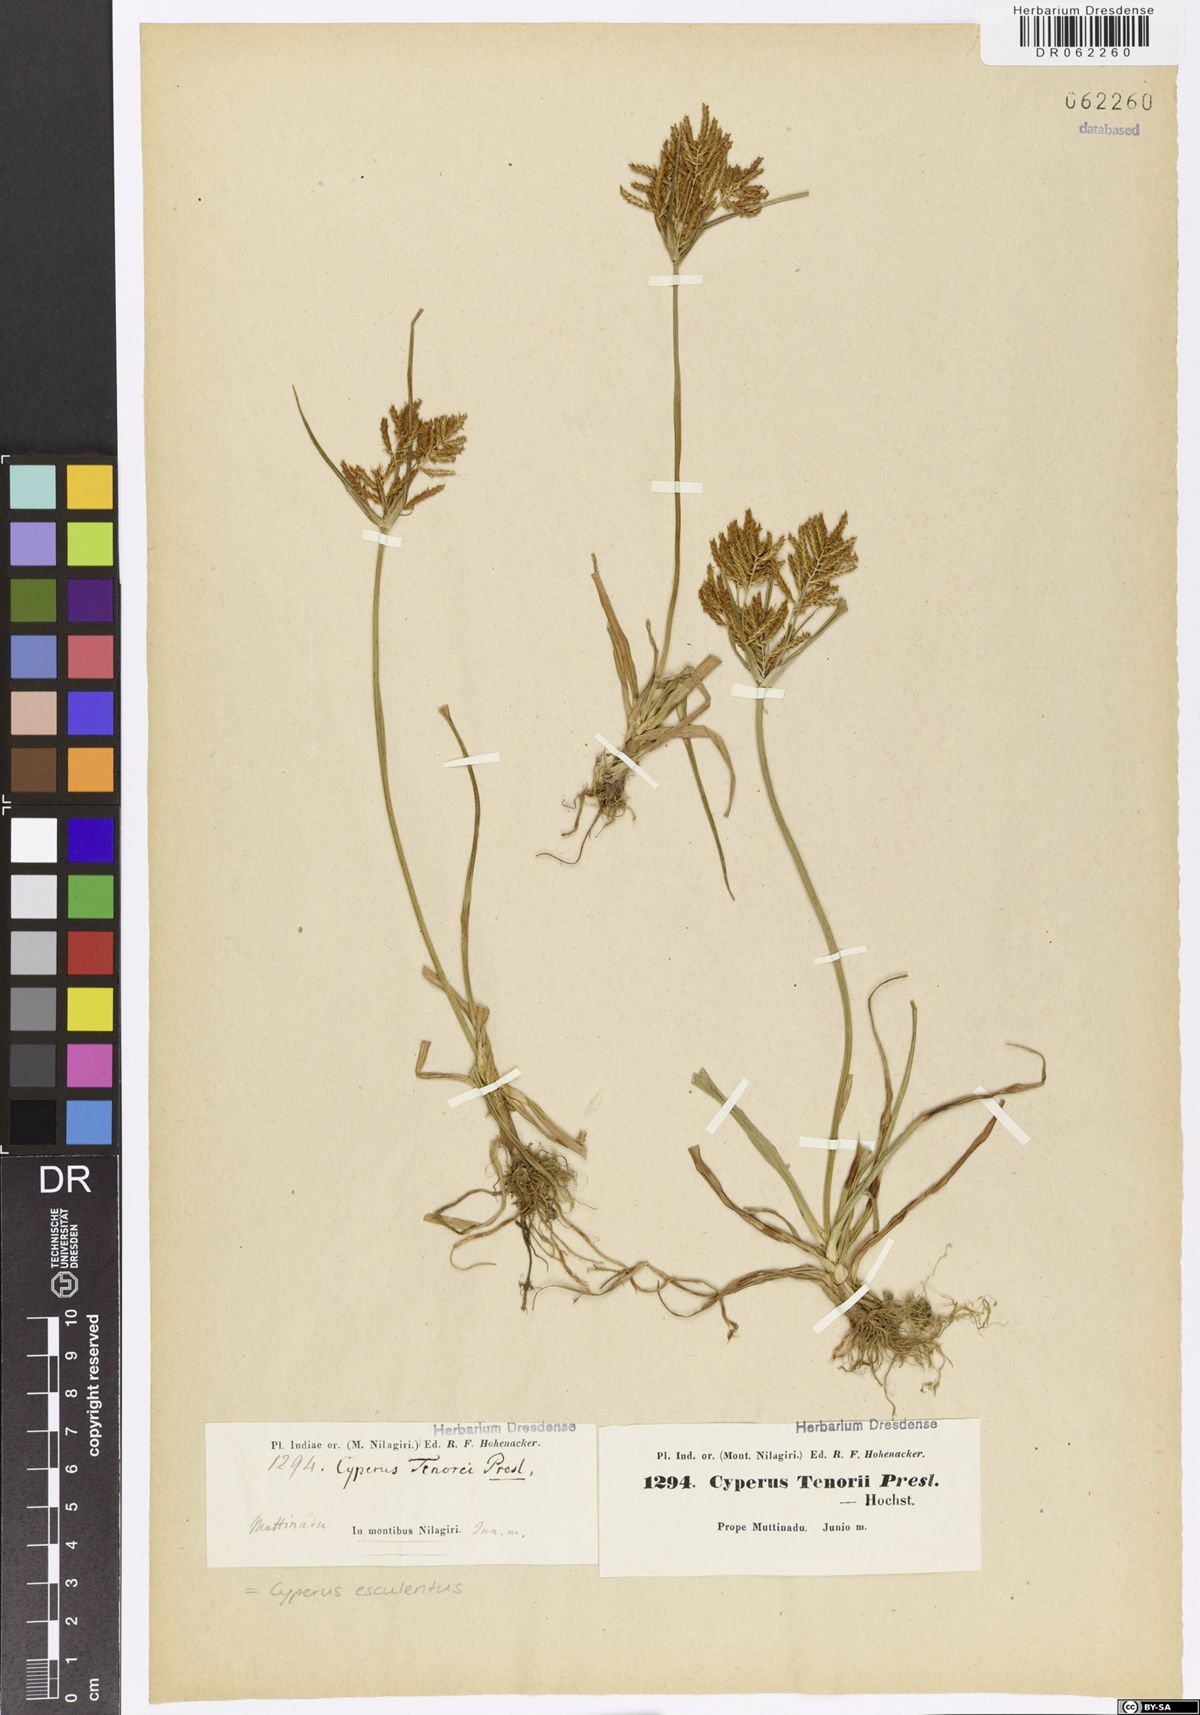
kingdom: Plantae
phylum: Tracheophyta
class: Liliopsida
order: Poales
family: Cyperaceae
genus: Cyperus
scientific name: Cyperus esculentus
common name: Yellow nutsedge
